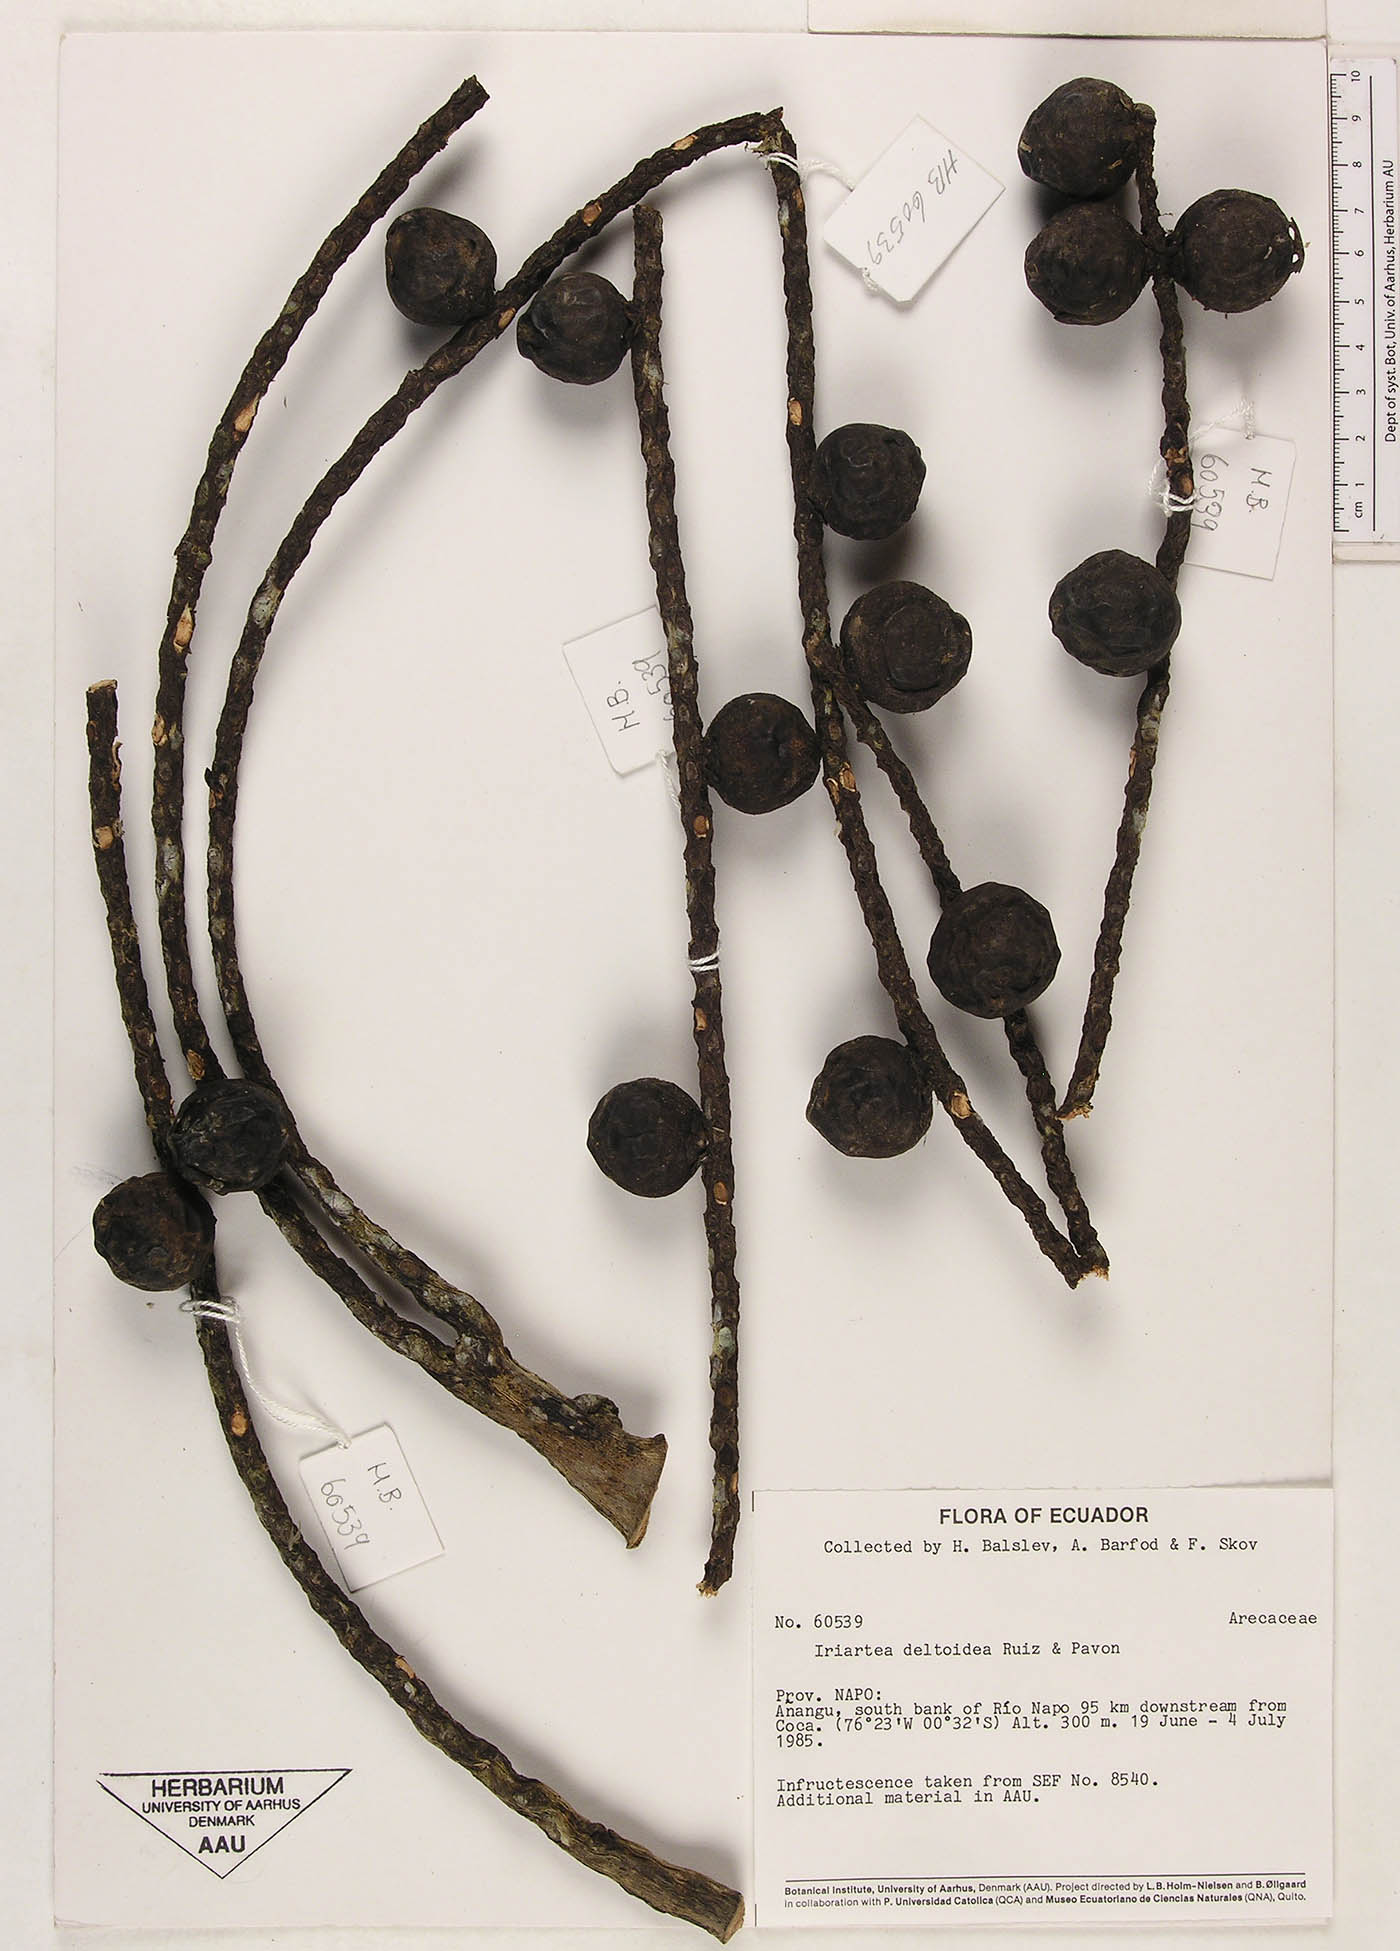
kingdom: Plantae
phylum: Tracheophyta
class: Liliopsida
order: Arecales
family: Arecaceae
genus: Iriartea
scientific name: Iriartea deltoidea
